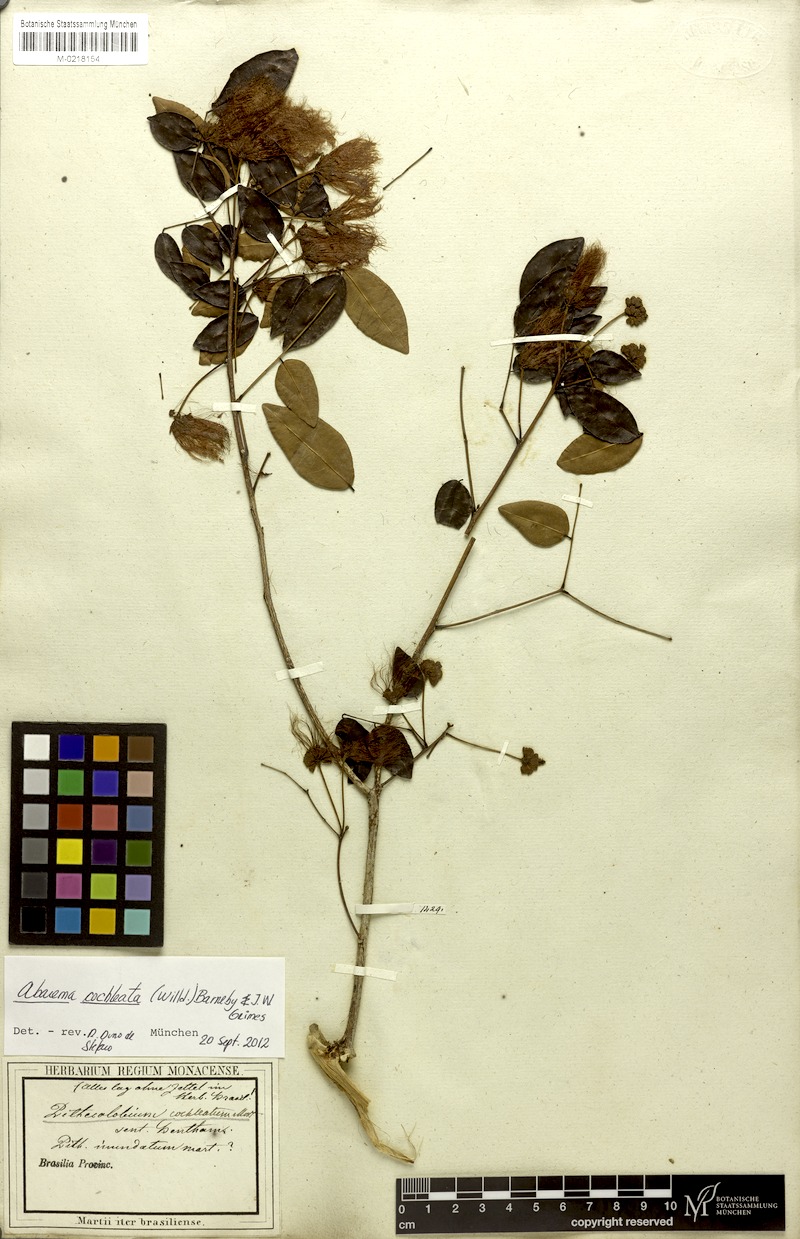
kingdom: Plantae
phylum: Tracheophyta
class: Magnoliopsida
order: Fabales
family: Fabaceae
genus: Jupunba
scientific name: Jupunba cochleata
